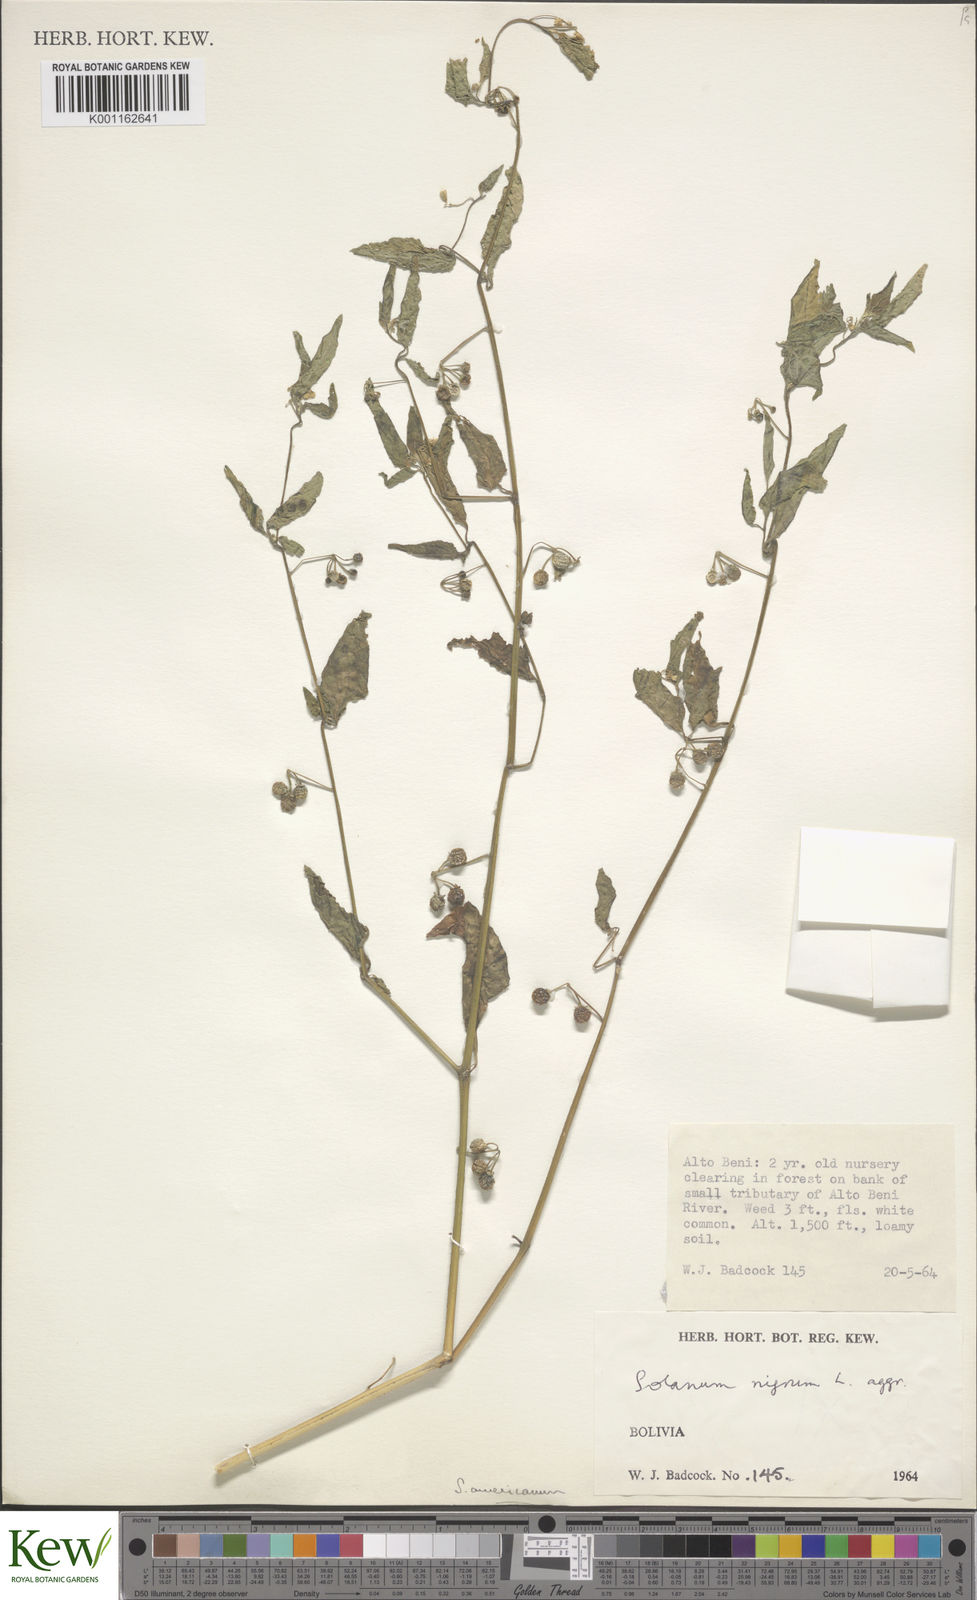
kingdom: Plantae
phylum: Tracheophyta
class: Magnoliopsida
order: Solanales
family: Solanaceae
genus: Solanum
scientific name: Solanum americanum
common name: American black nightshade
